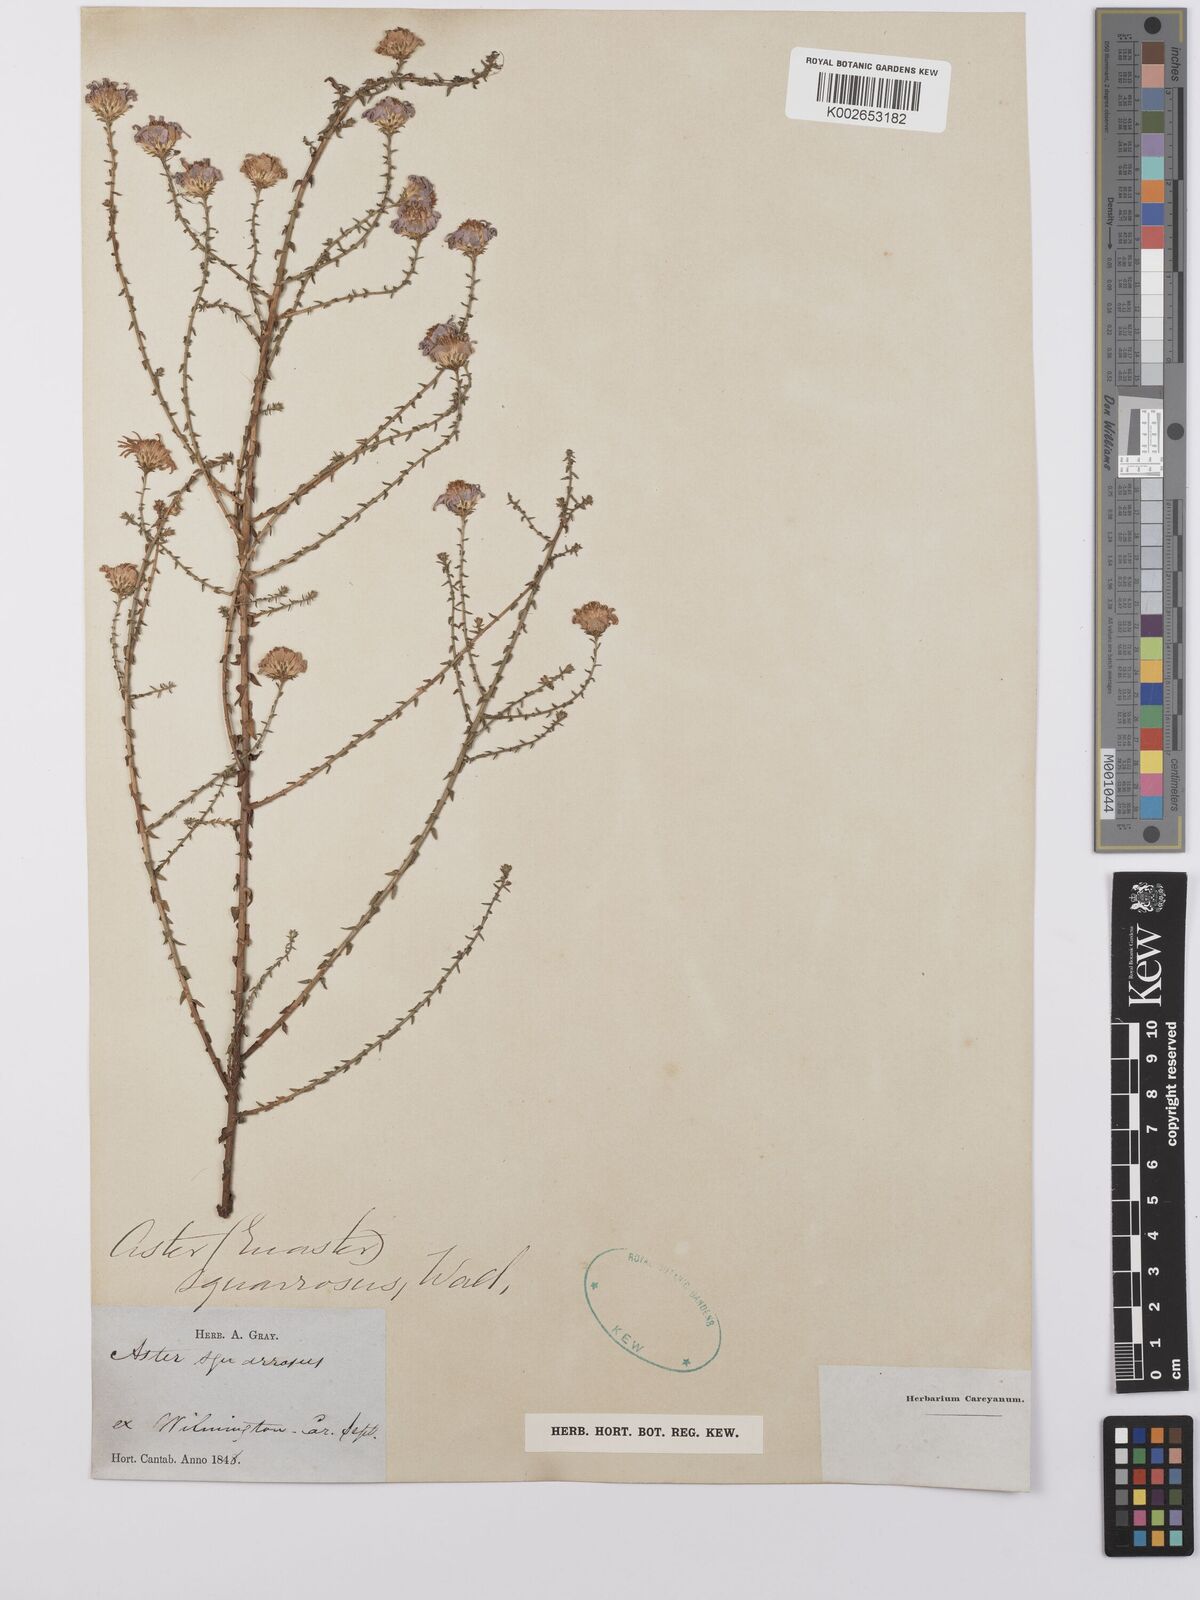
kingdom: Plantae
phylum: Tracheophyta
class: Magnoliopsida
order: Asterales
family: Asteraceae
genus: Aster
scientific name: Aster
